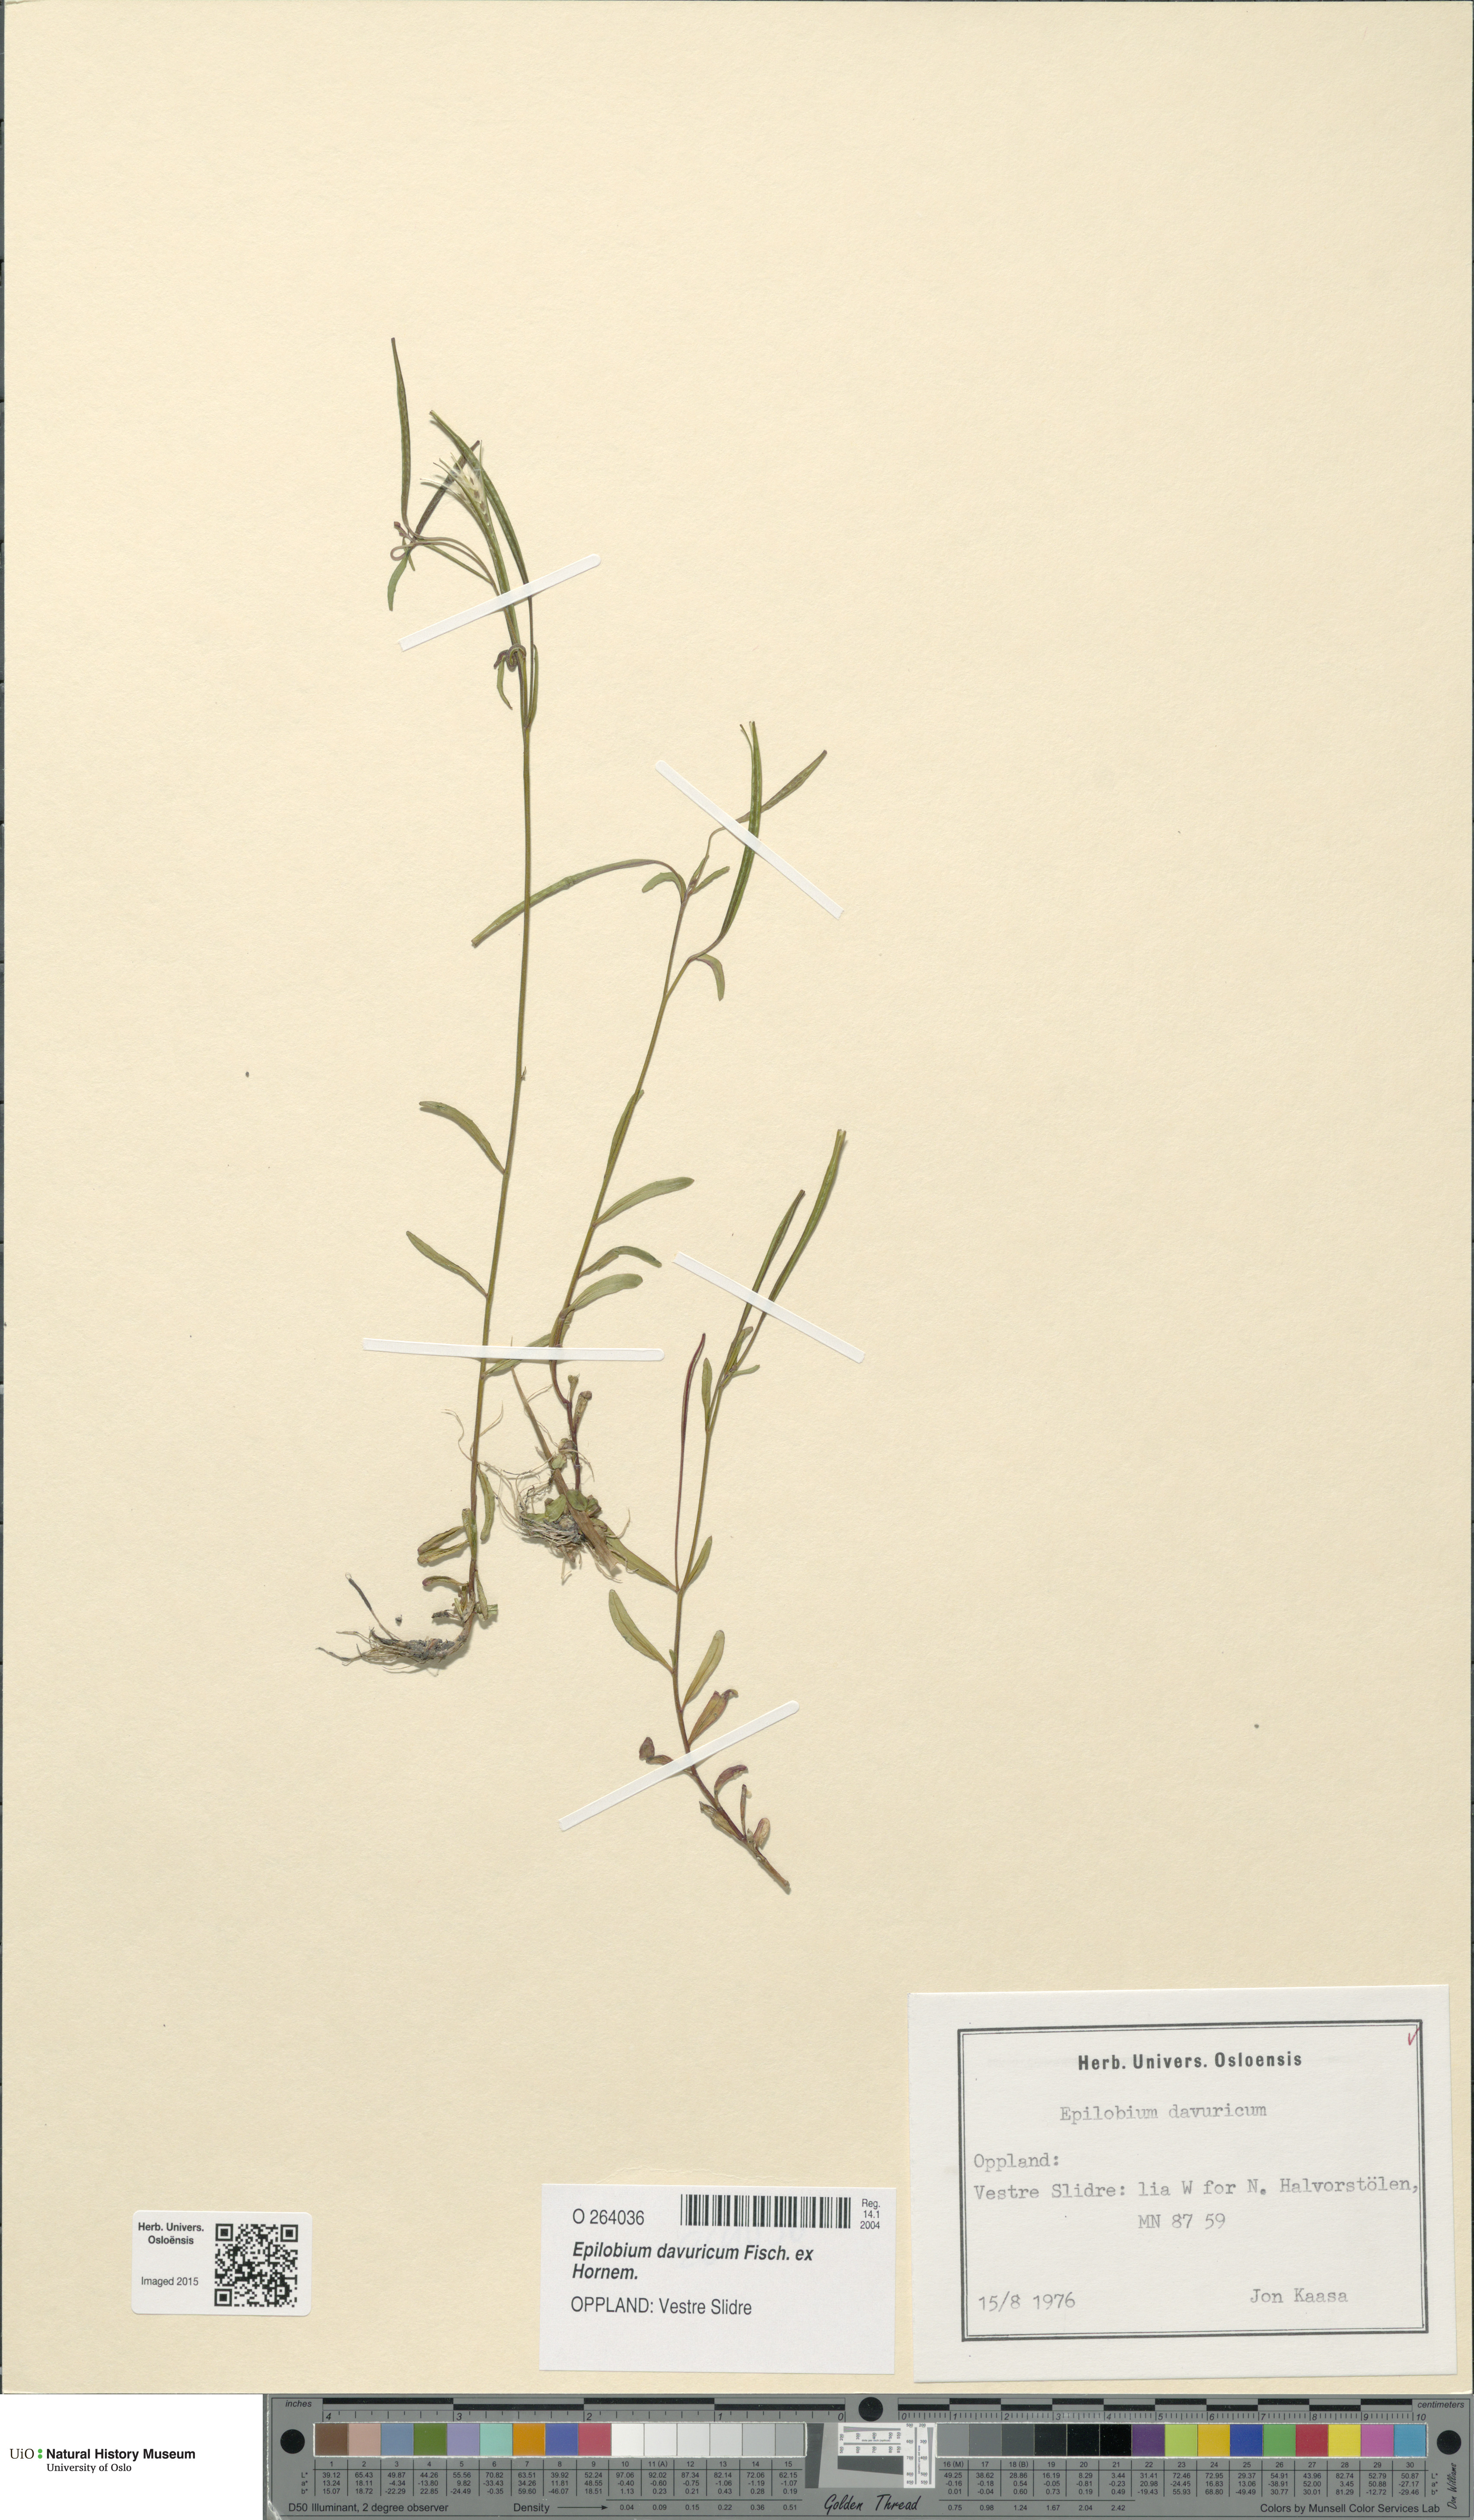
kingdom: Plantae
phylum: Tracheophyta
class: Magnoliopsida
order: Myrtales
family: Onagraceae
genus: Epilobium
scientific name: Epilobium davuricum
